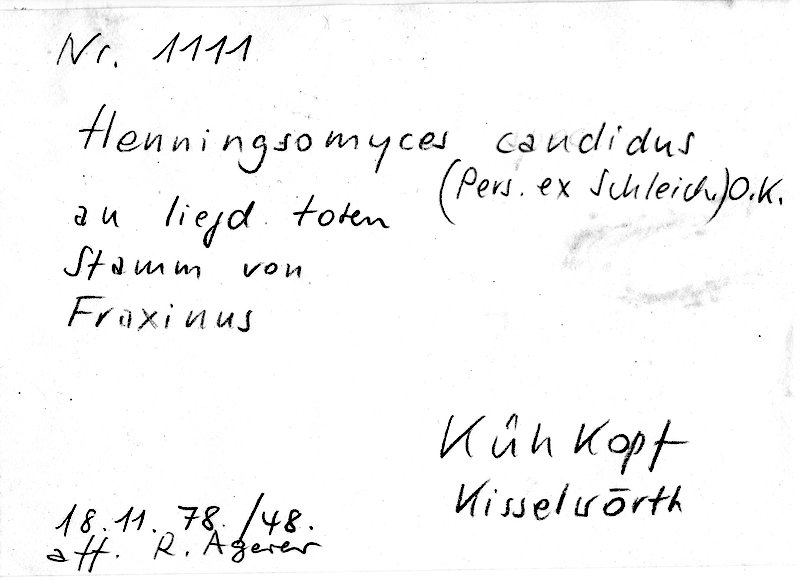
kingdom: Plantae
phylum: Tracheophyta
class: Magnoliopsida
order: Lamiales
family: Oleaceae
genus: Fraxinus
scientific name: Fraxinus
